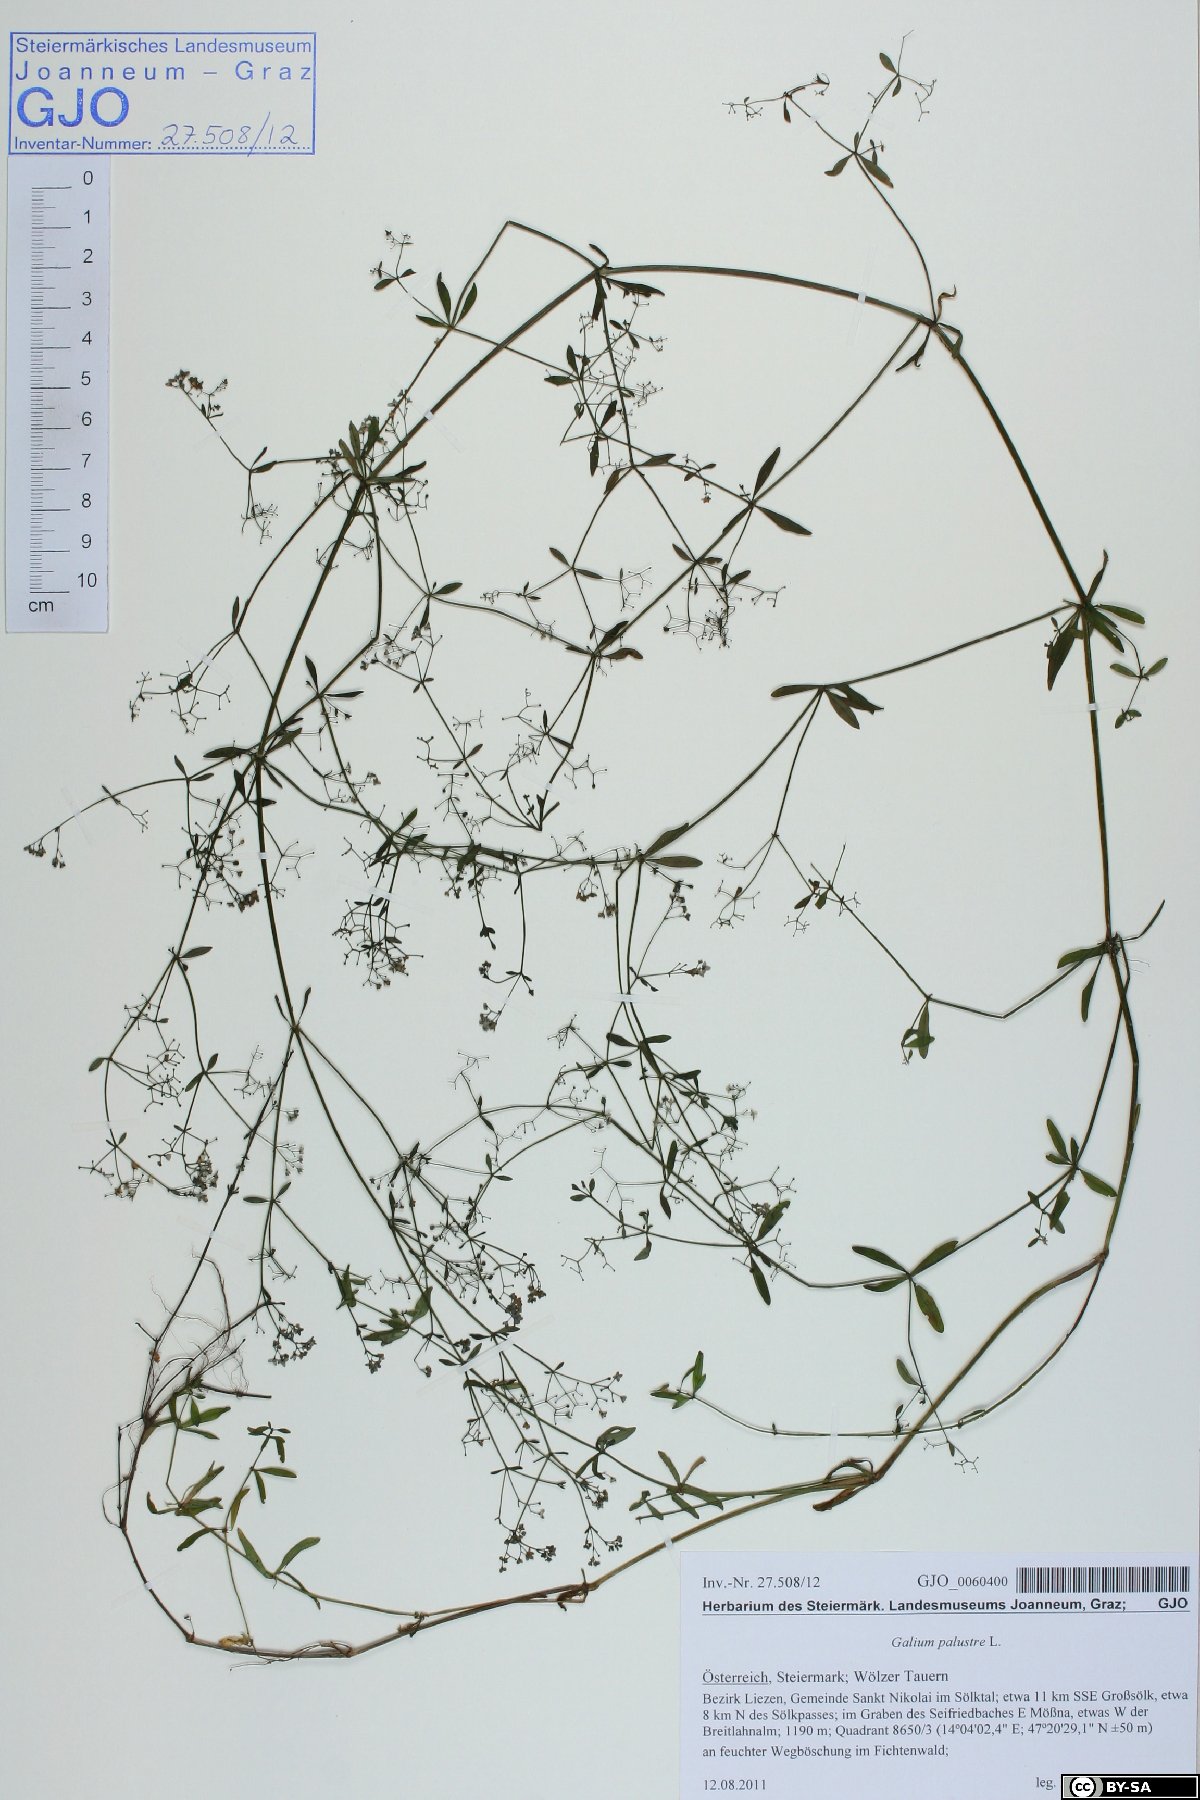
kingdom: Plantae
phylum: Tracheophyta
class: Magnoliopsida
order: Gentianales
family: Rubiaceae
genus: Galium
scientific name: Galium palustre
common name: Common marsh-bedstraw
